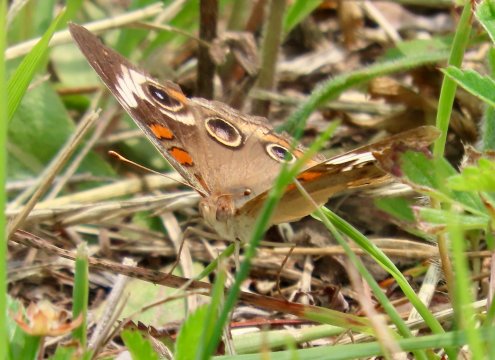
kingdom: Animalia
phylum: Arthropoda
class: Insecta
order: Lepidoptera
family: Nymphalidae
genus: Junonia
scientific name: Junonia coenia
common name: Common Buckeye
